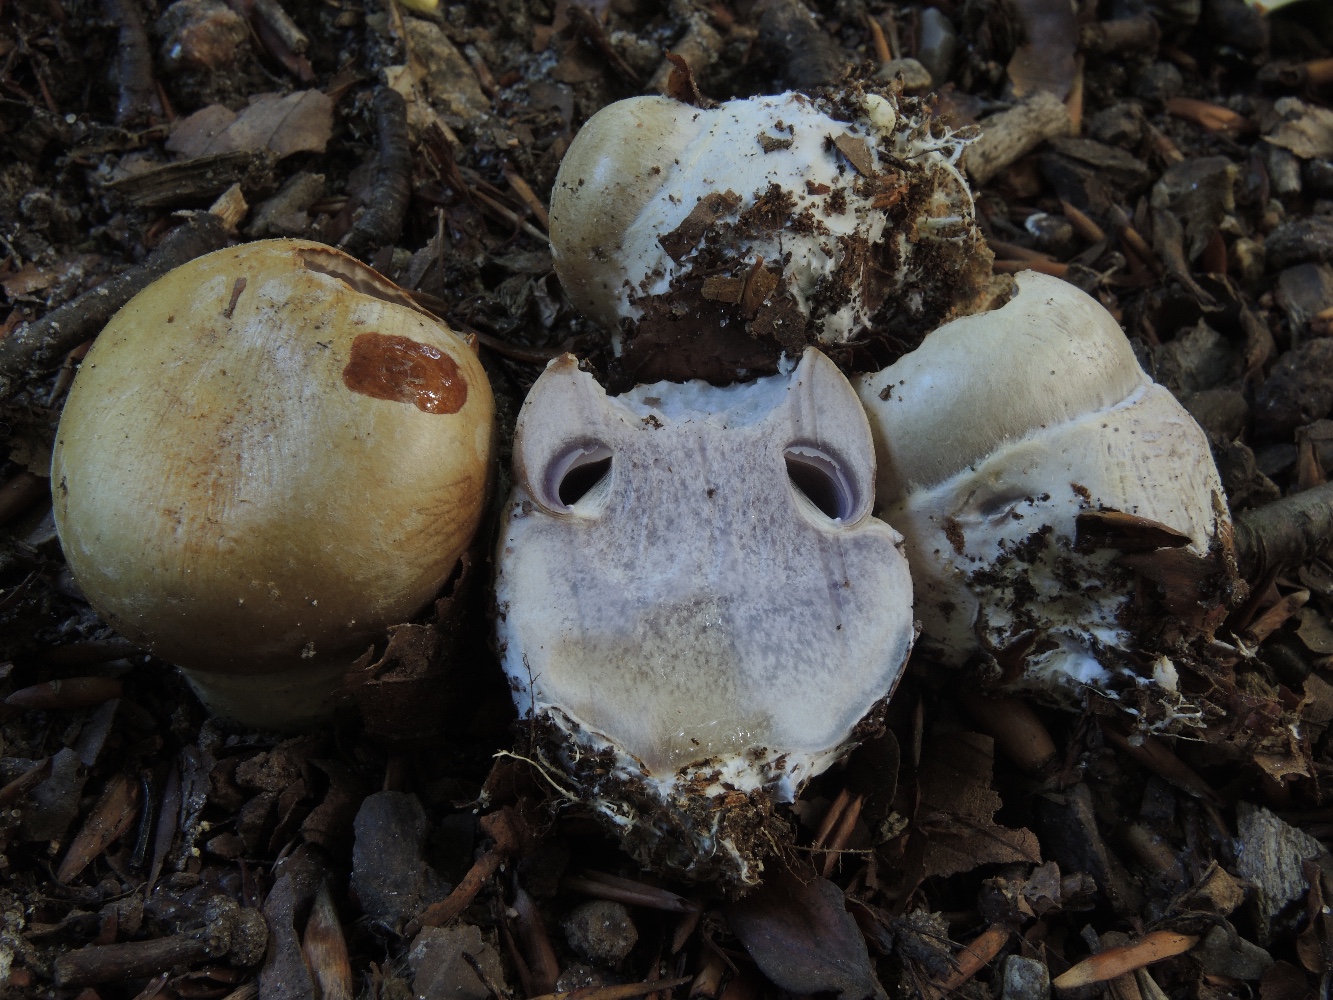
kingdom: Fungi
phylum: Basidiomycota
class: Agaricomycetes
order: Agaricales
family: Cortinariaceae
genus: Cortinarius
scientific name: Cortinarius anserinus
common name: bøge-slørhat
